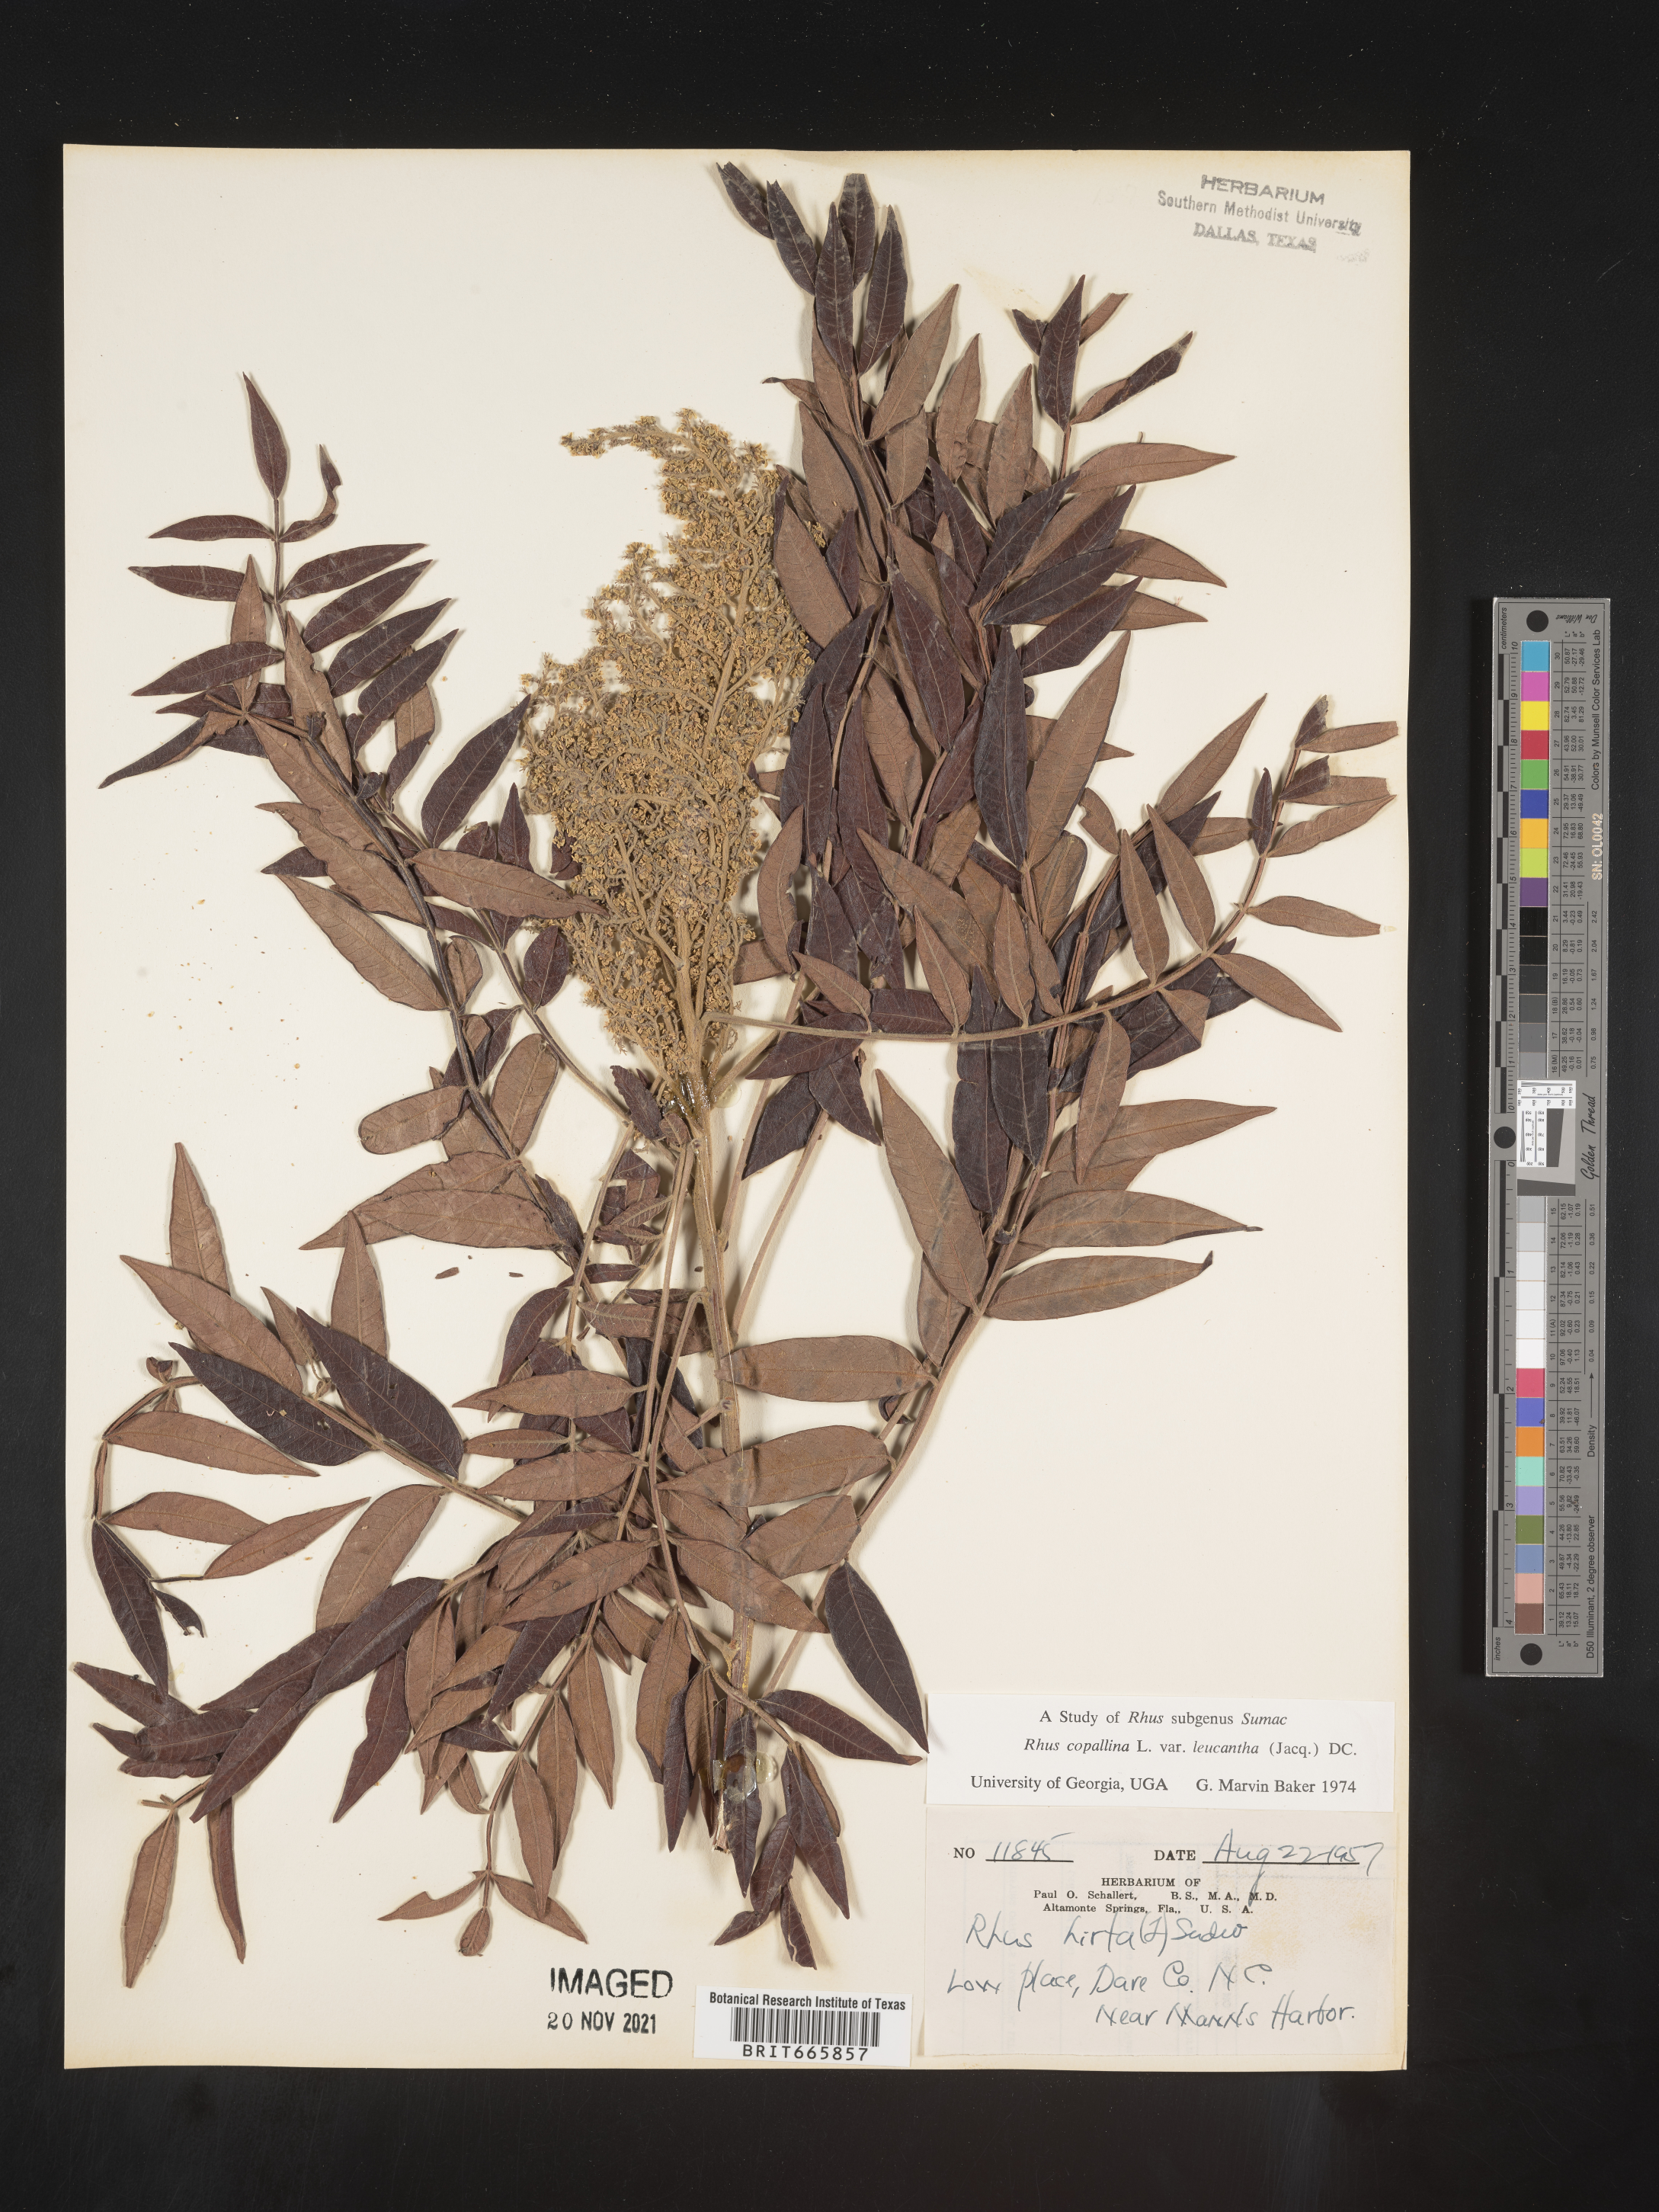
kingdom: Plantae
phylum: Tracheophyta
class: Magnoliopsida
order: Sapindales
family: Anacardiaceae
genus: Rhus
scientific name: Rhus copallina
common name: Shining sumac
